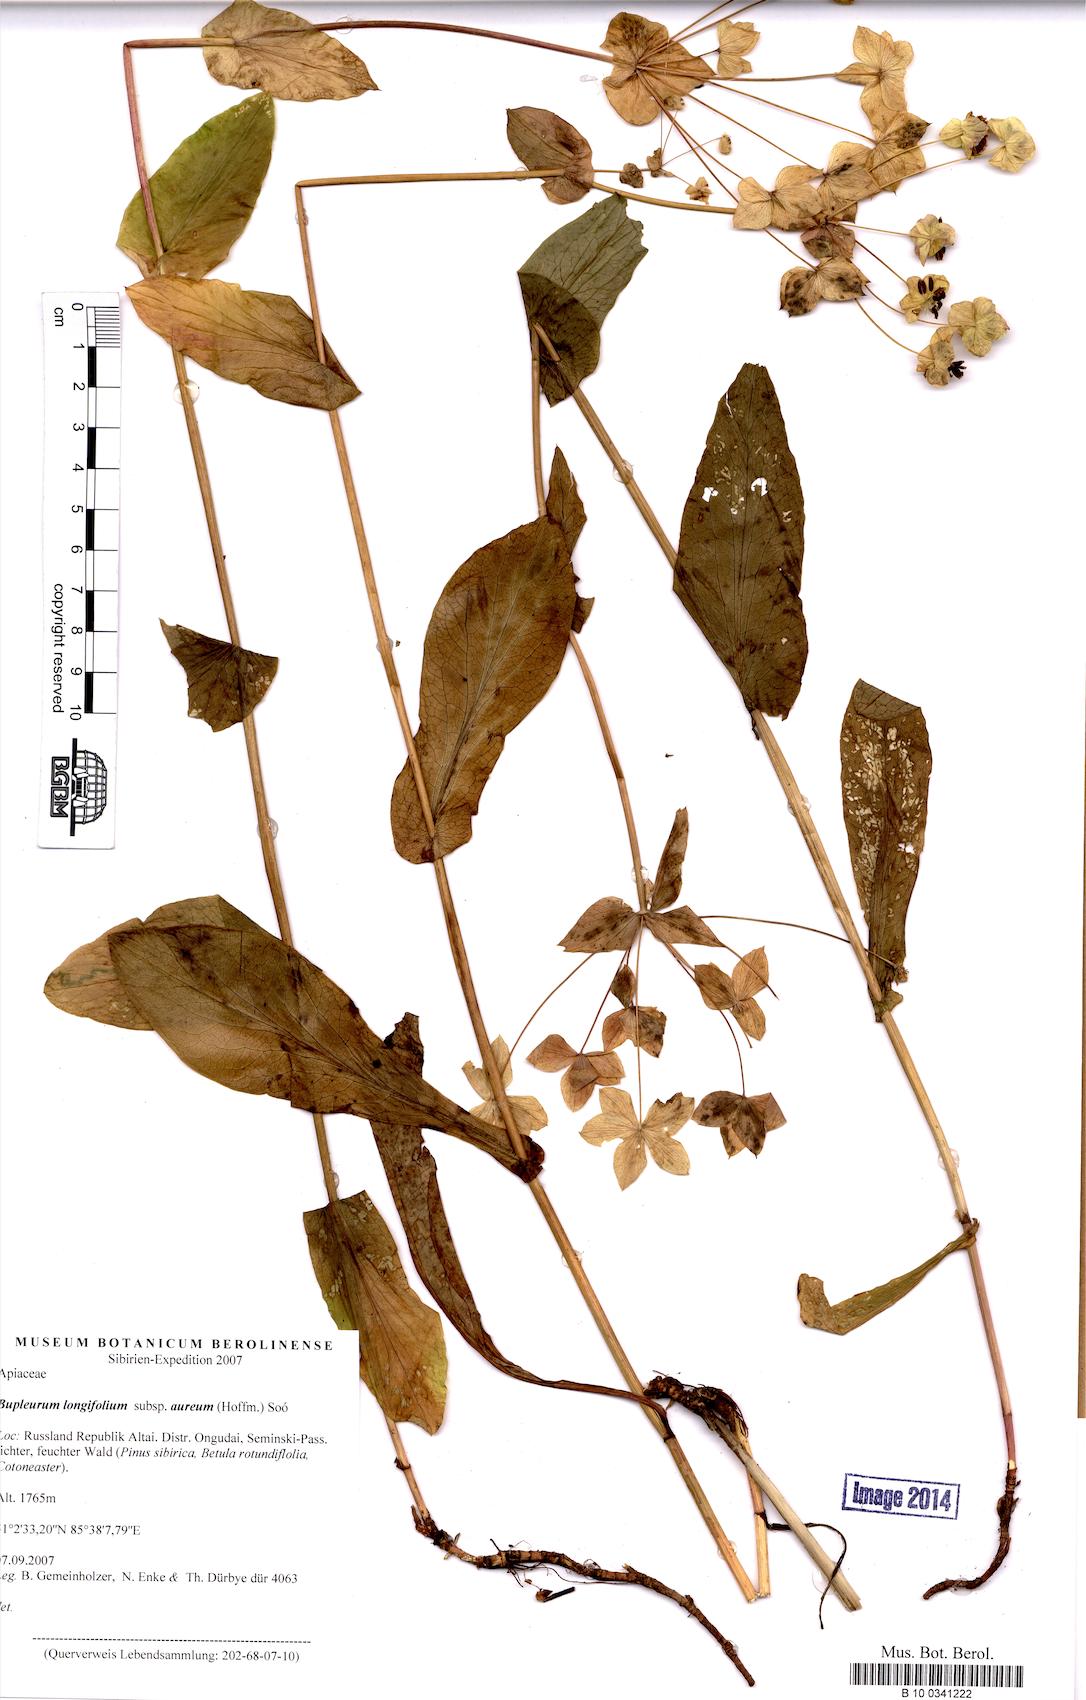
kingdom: Plantae
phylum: Tracheophyta
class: Magnoliopsida
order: Apiales
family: Apiaceae
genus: Bupleurum
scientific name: Bupleurum aureum
